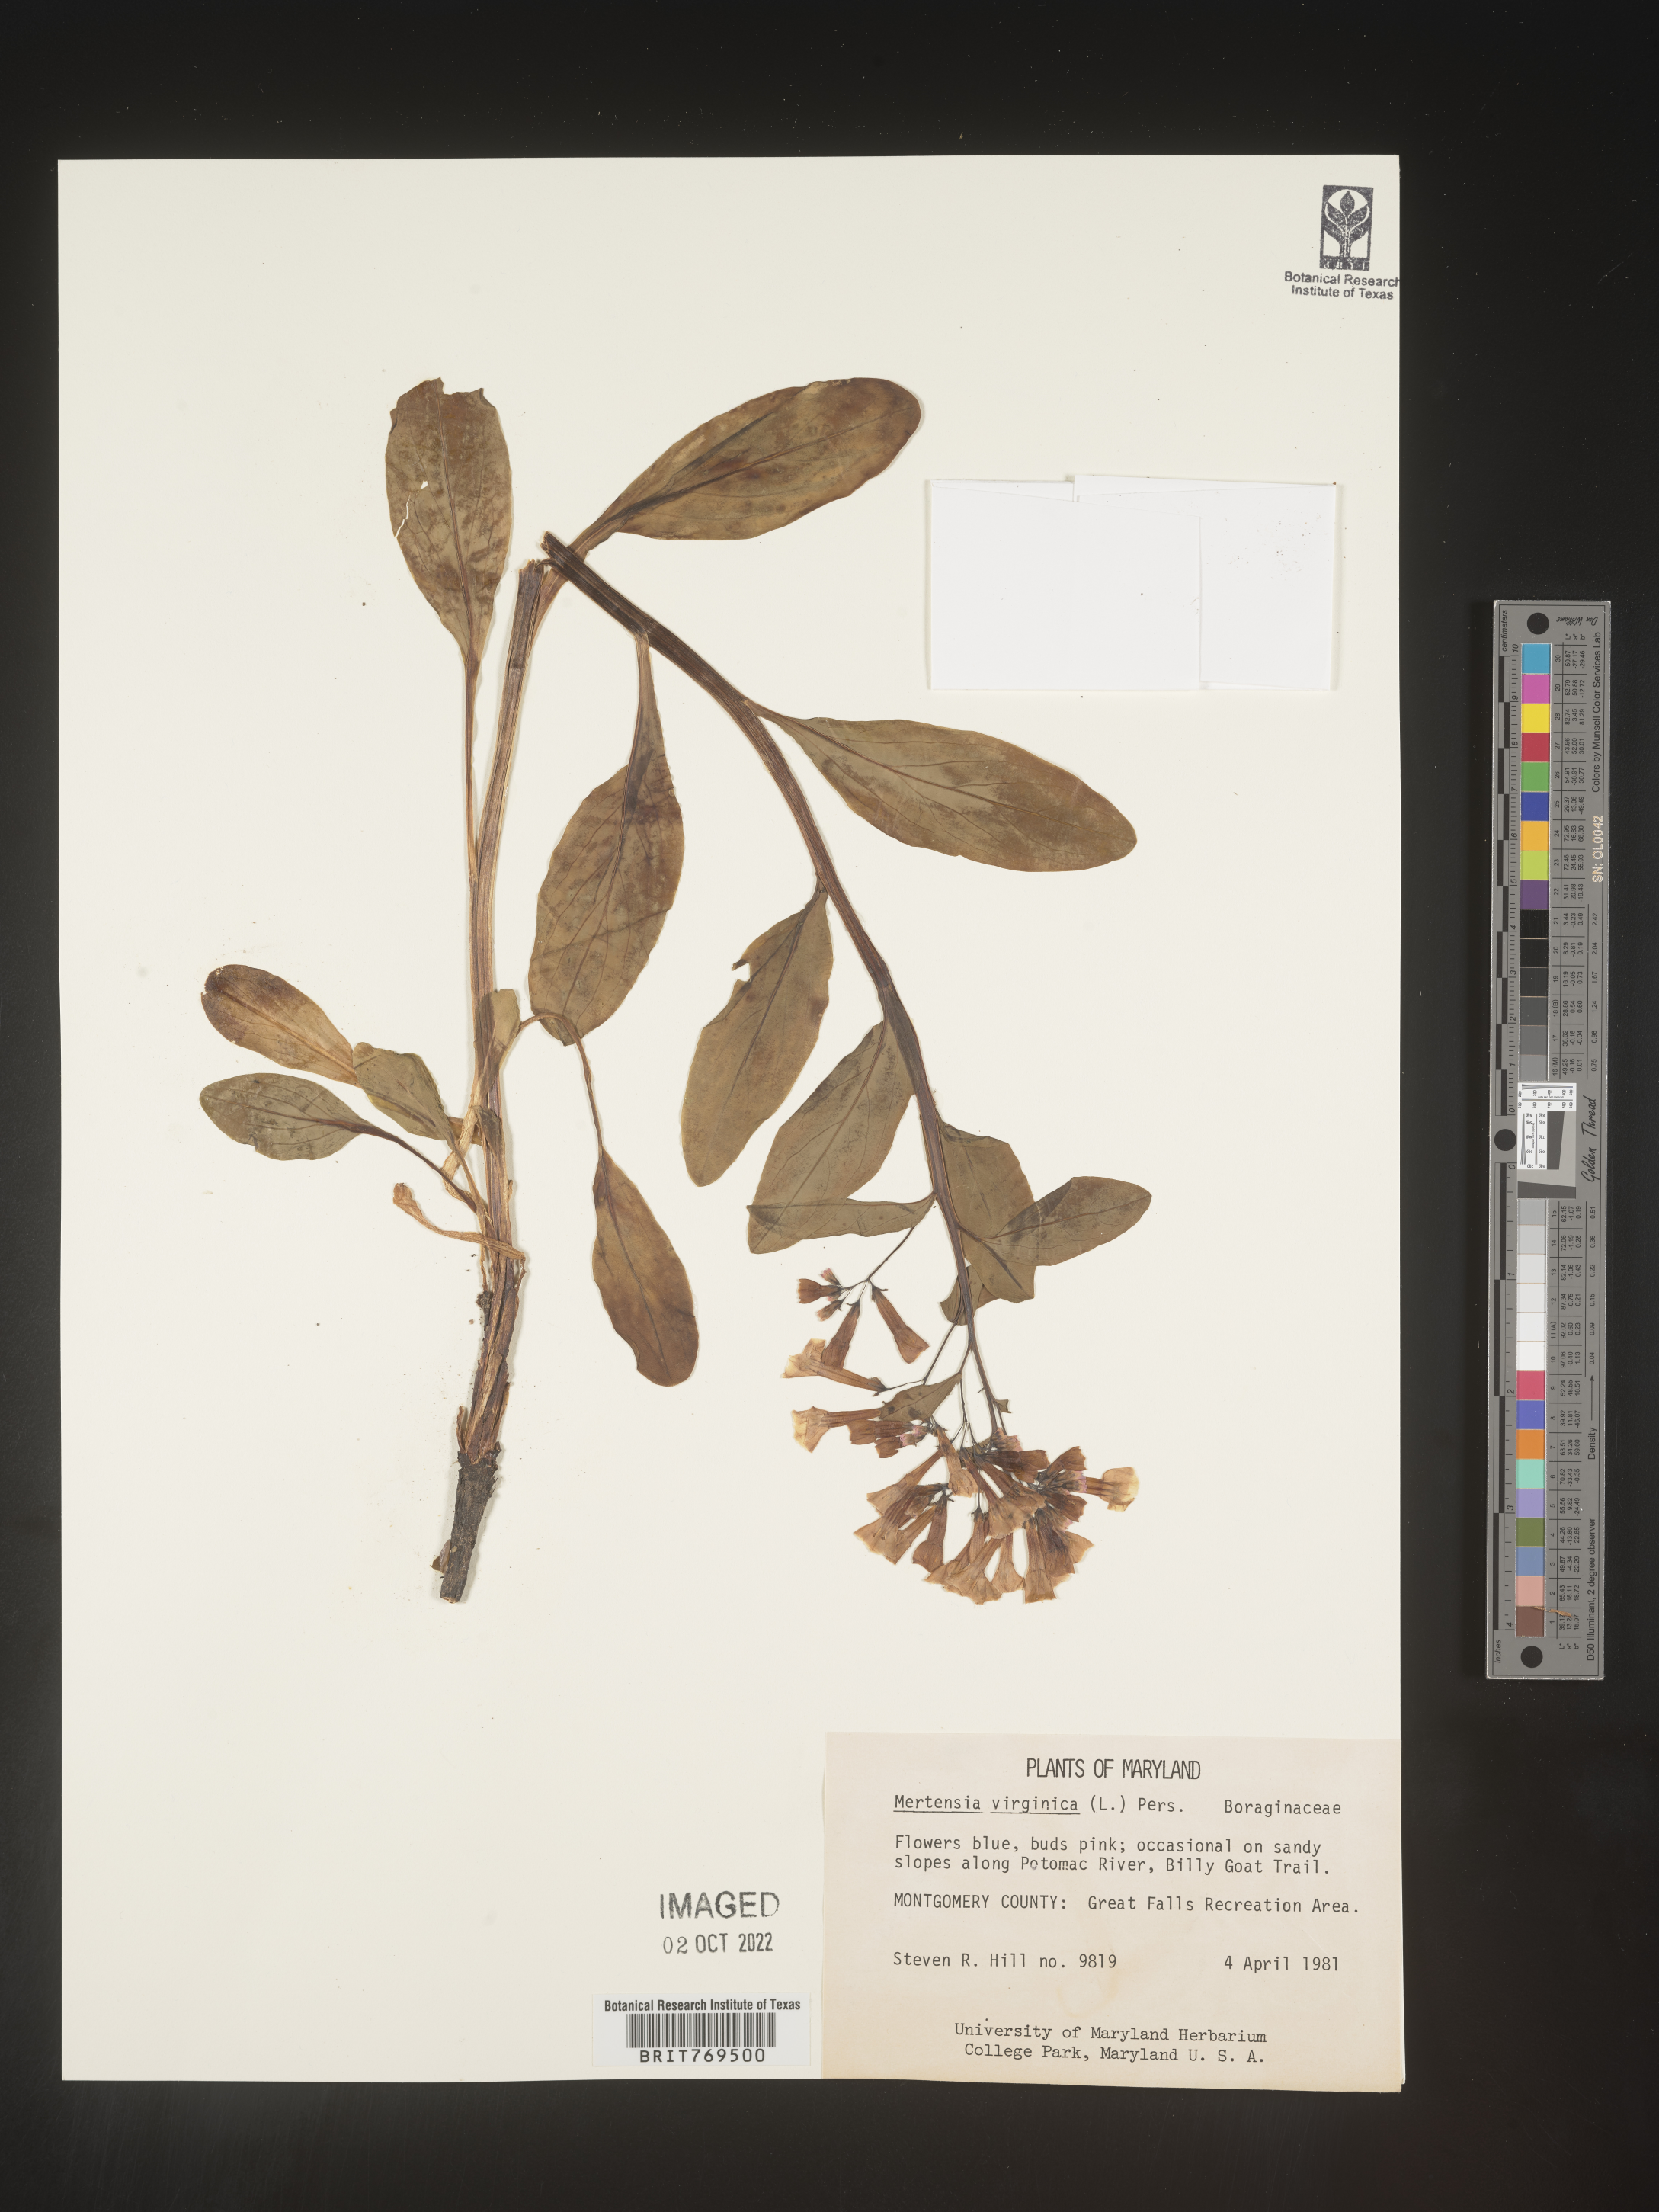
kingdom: Plantae
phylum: Tracheophyta
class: Magnoliopsida
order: Boraginales
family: Boraginaceae
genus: Mertensia
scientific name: Mertensia virginica
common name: Virginia bluebells
